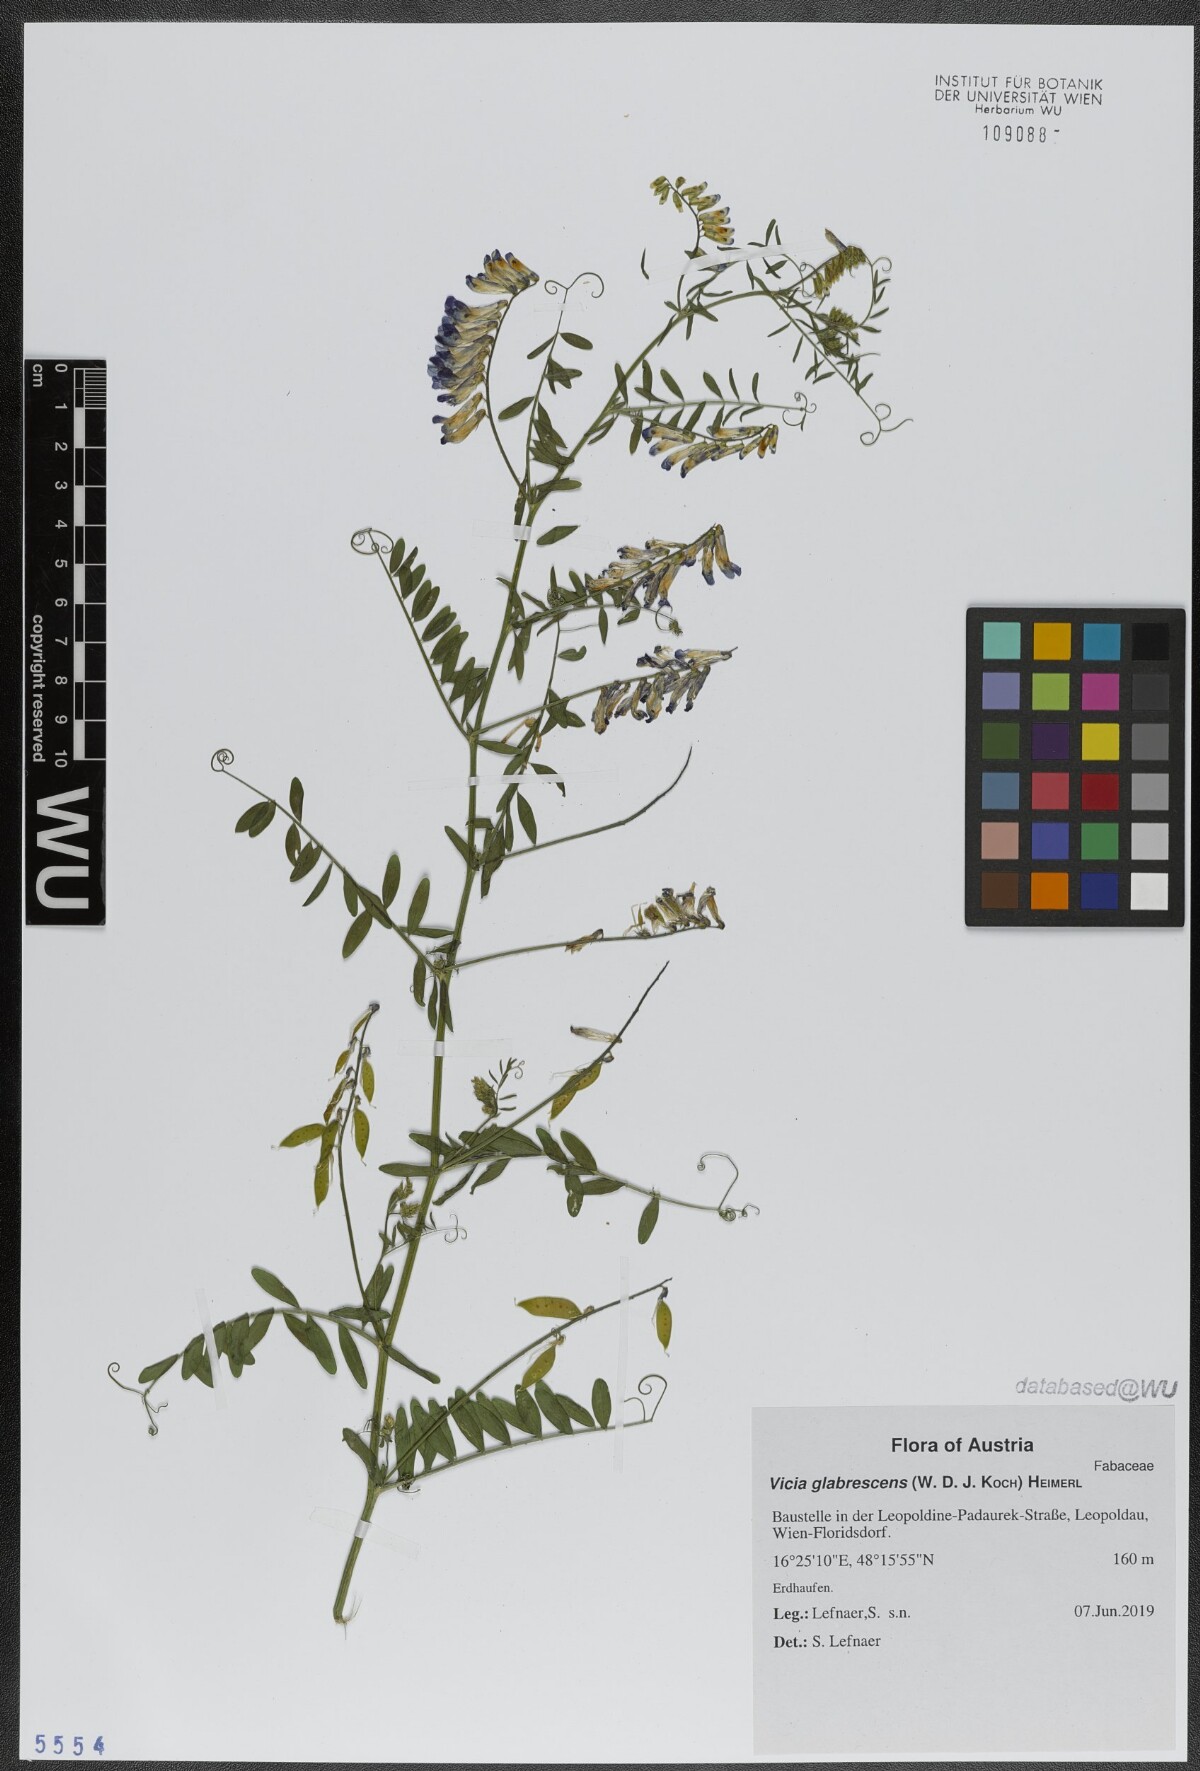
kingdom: Plantae
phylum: Tracheophyta
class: Magnoliopsida
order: Fabales
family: Fabaceae
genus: Vicia
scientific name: Vicia villosa
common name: Fodder vetch
